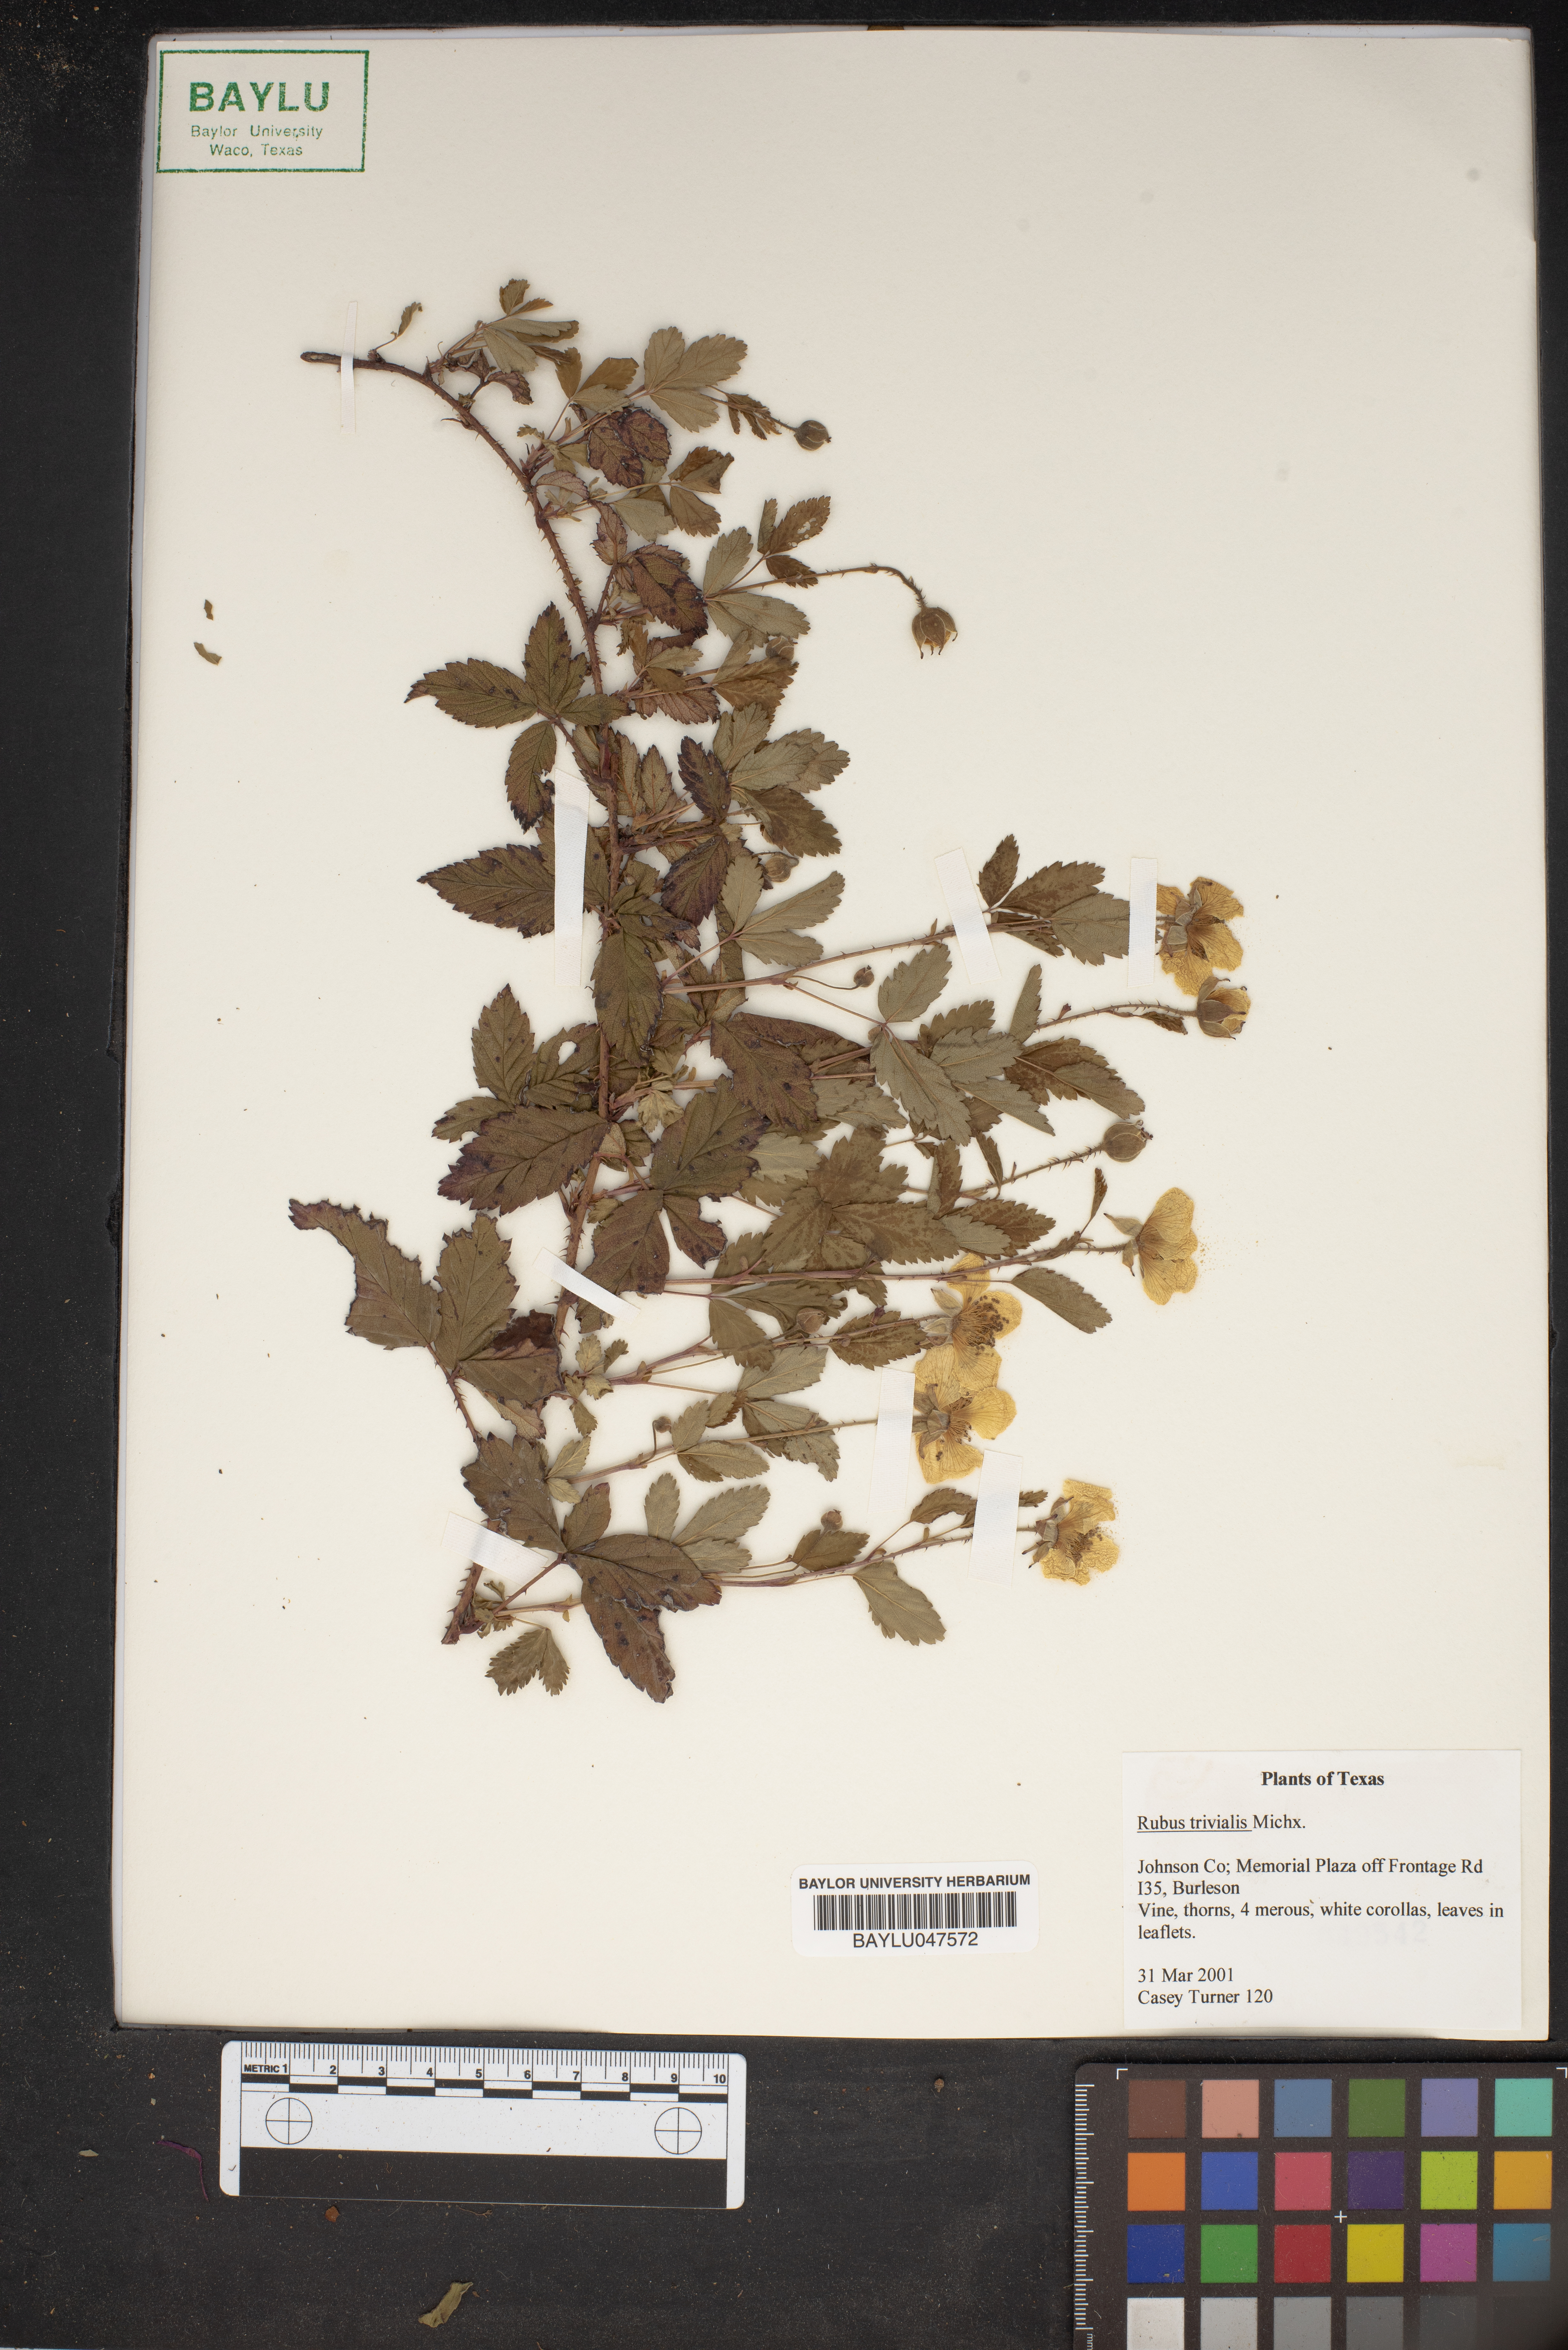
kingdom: Plantae
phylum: Tracheophyta
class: Magnoliopsida
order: Rosales
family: Rosaceae
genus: Rubus
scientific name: Rubus trivialis
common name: Southern dewberry
